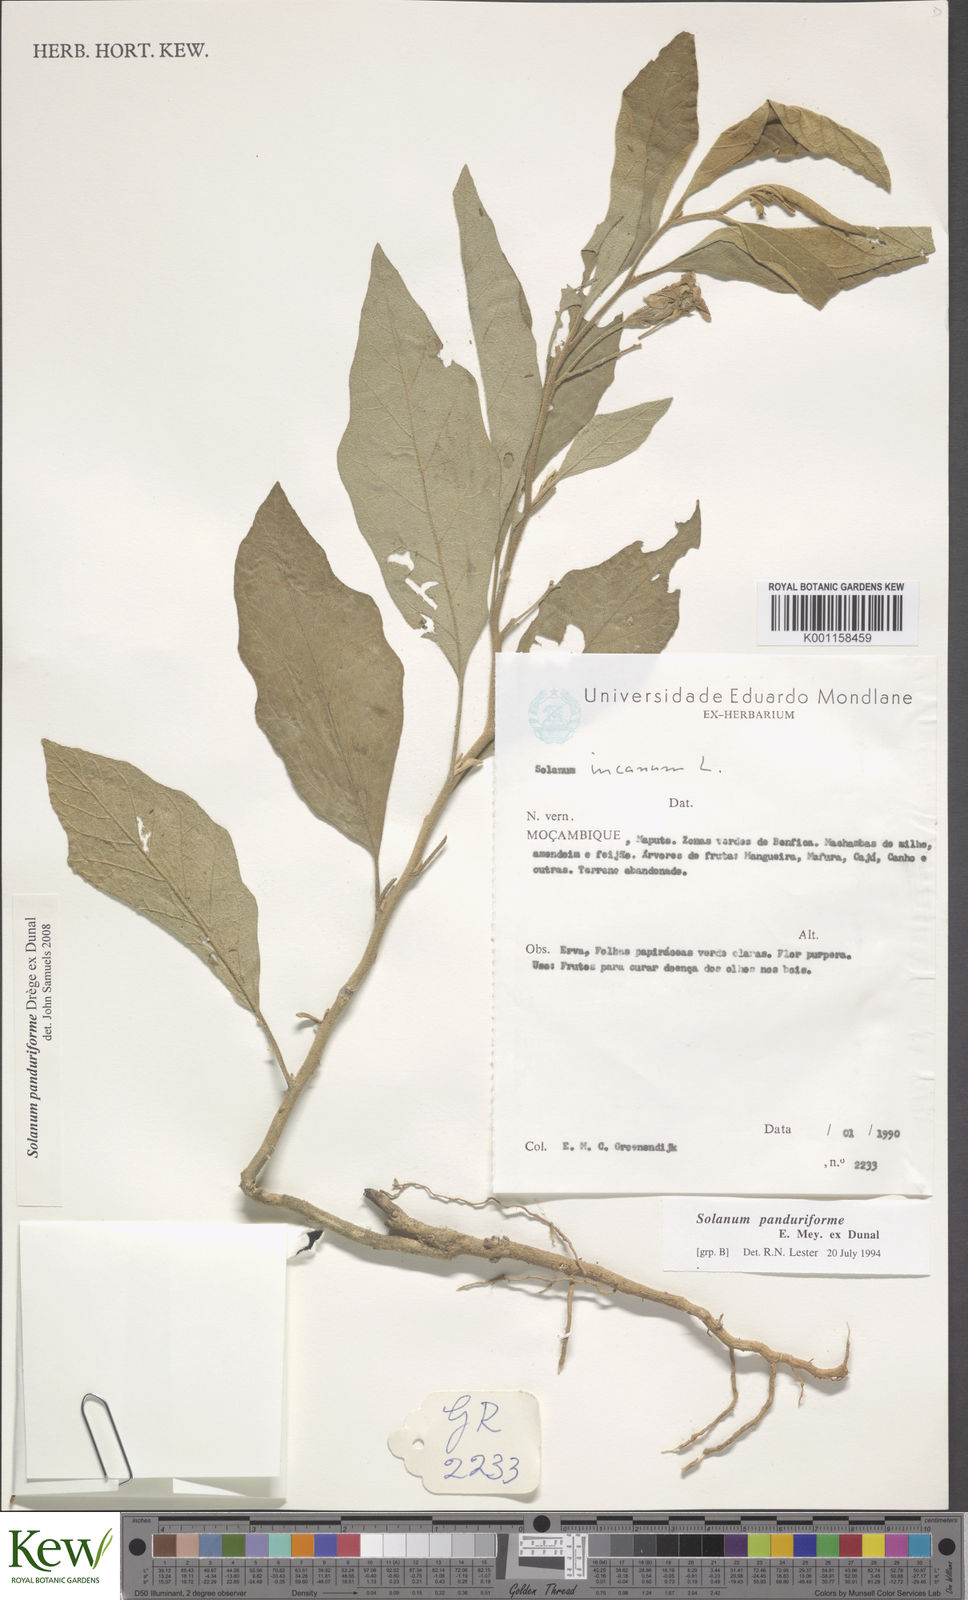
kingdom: Plantae
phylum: Tracheophyta
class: Magnoliopsida
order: Solanales
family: Solanaceae
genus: Solanum
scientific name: Solanum campylacanthum
